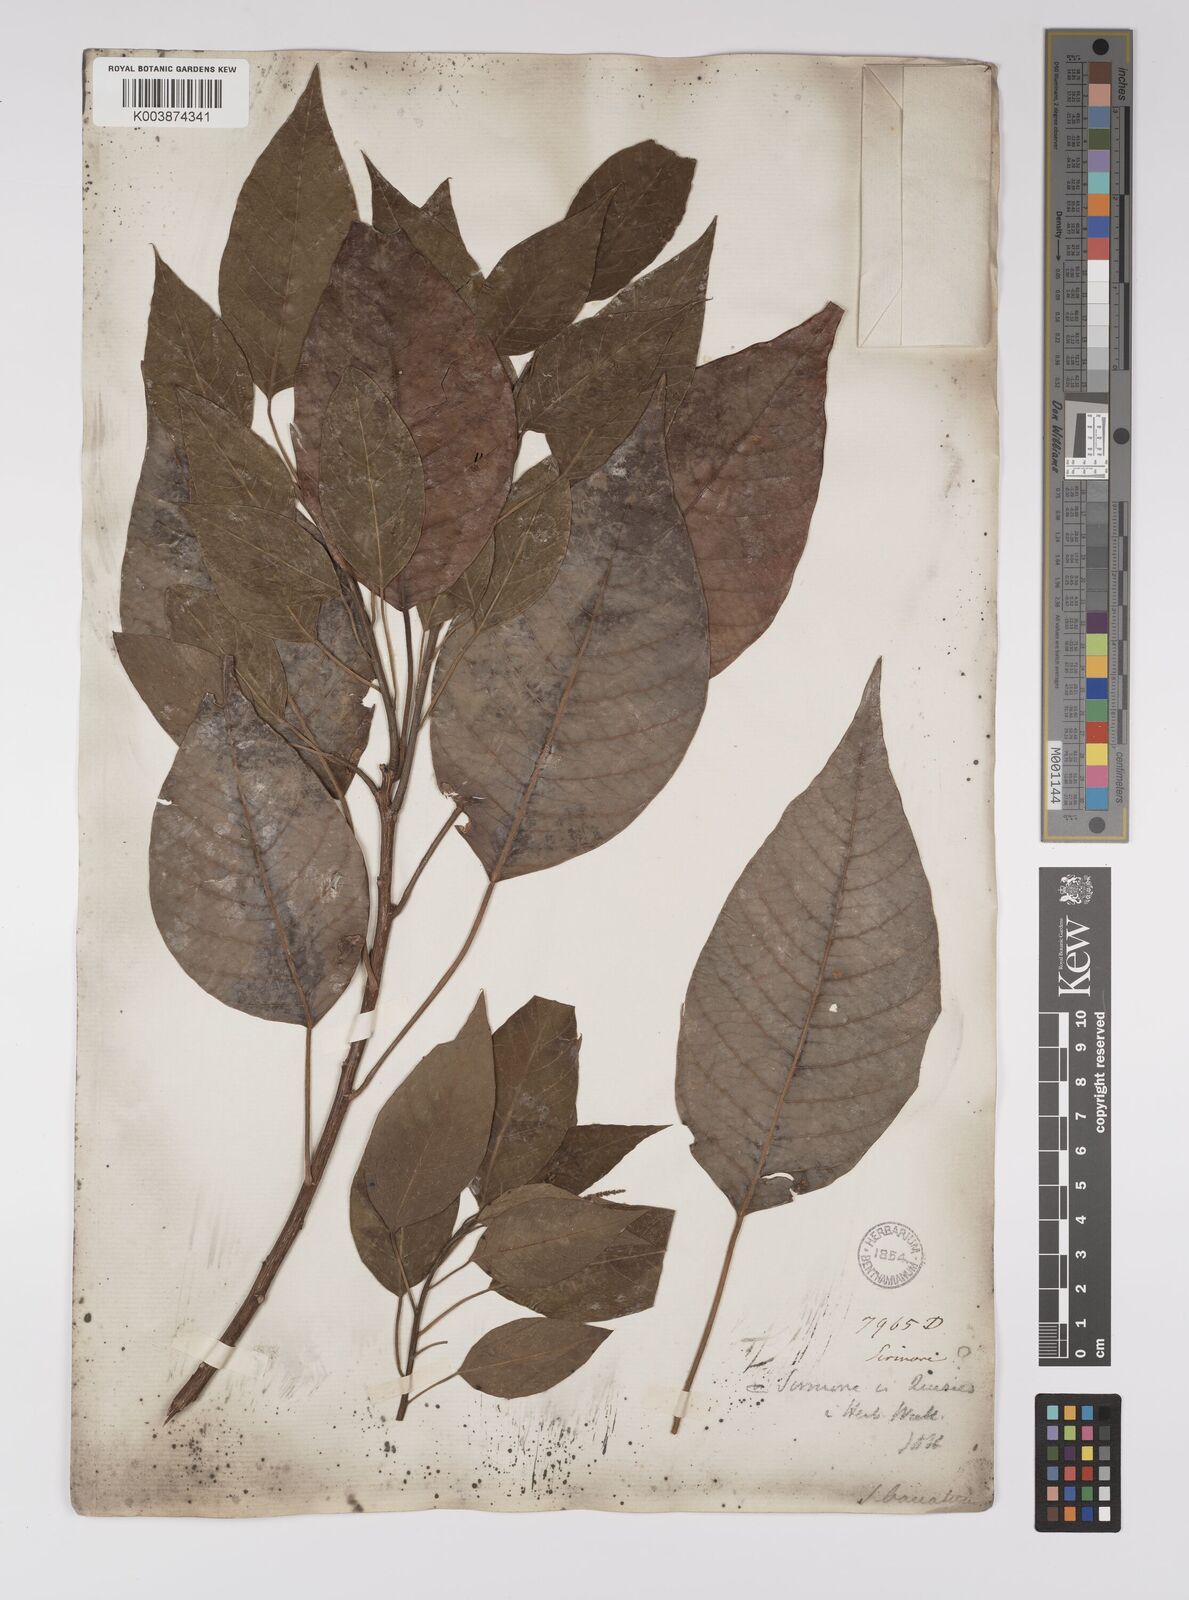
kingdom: Plantae
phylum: Tracheophyta
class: Magnoliopsida
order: Malpighiales
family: Euphorbiaceae
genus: Balakata
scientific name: Balakata baccata
